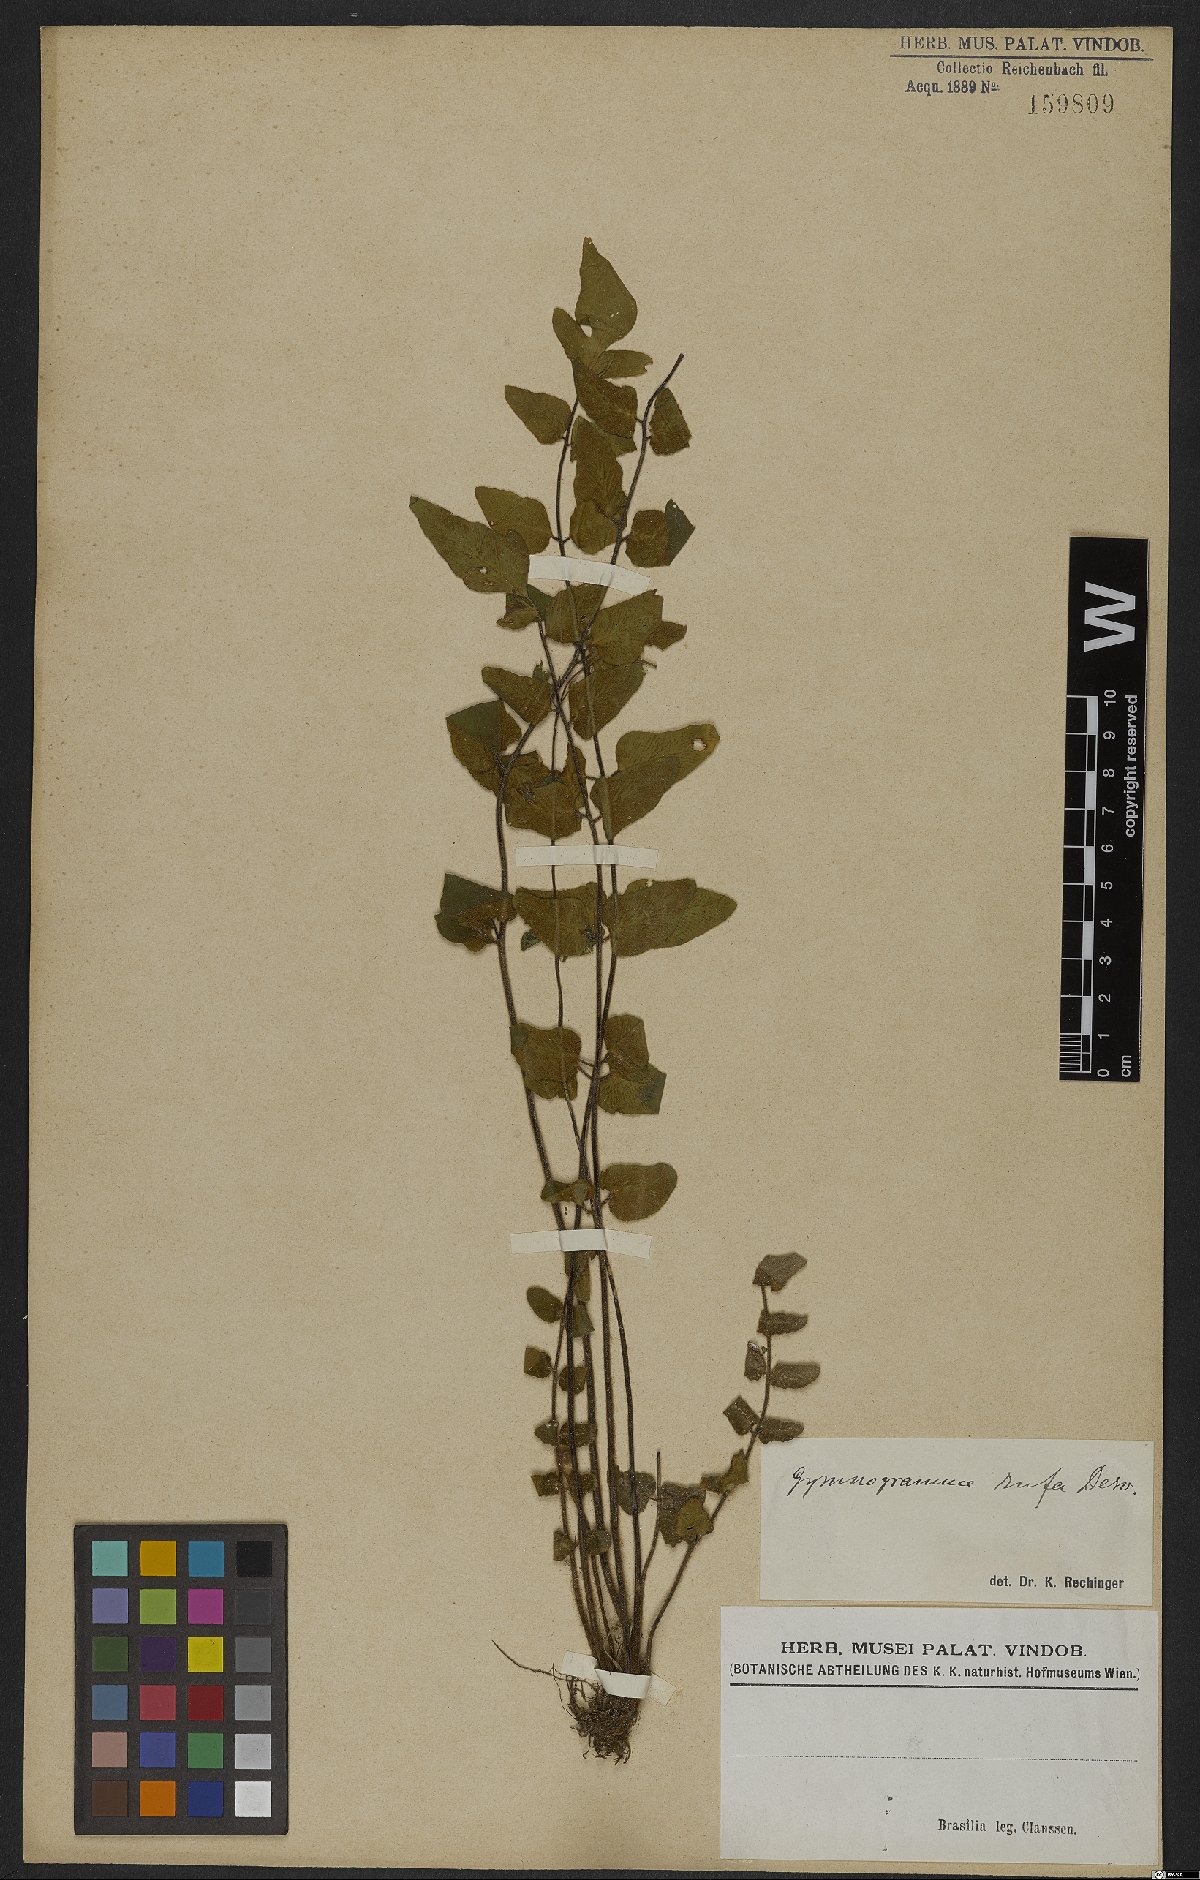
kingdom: Plantae
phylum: Tracheophyta
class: Polypodiopsida
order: Polypodiales
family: Pteridaceae
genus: Hemionitis
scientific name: Hemionitis rufa
